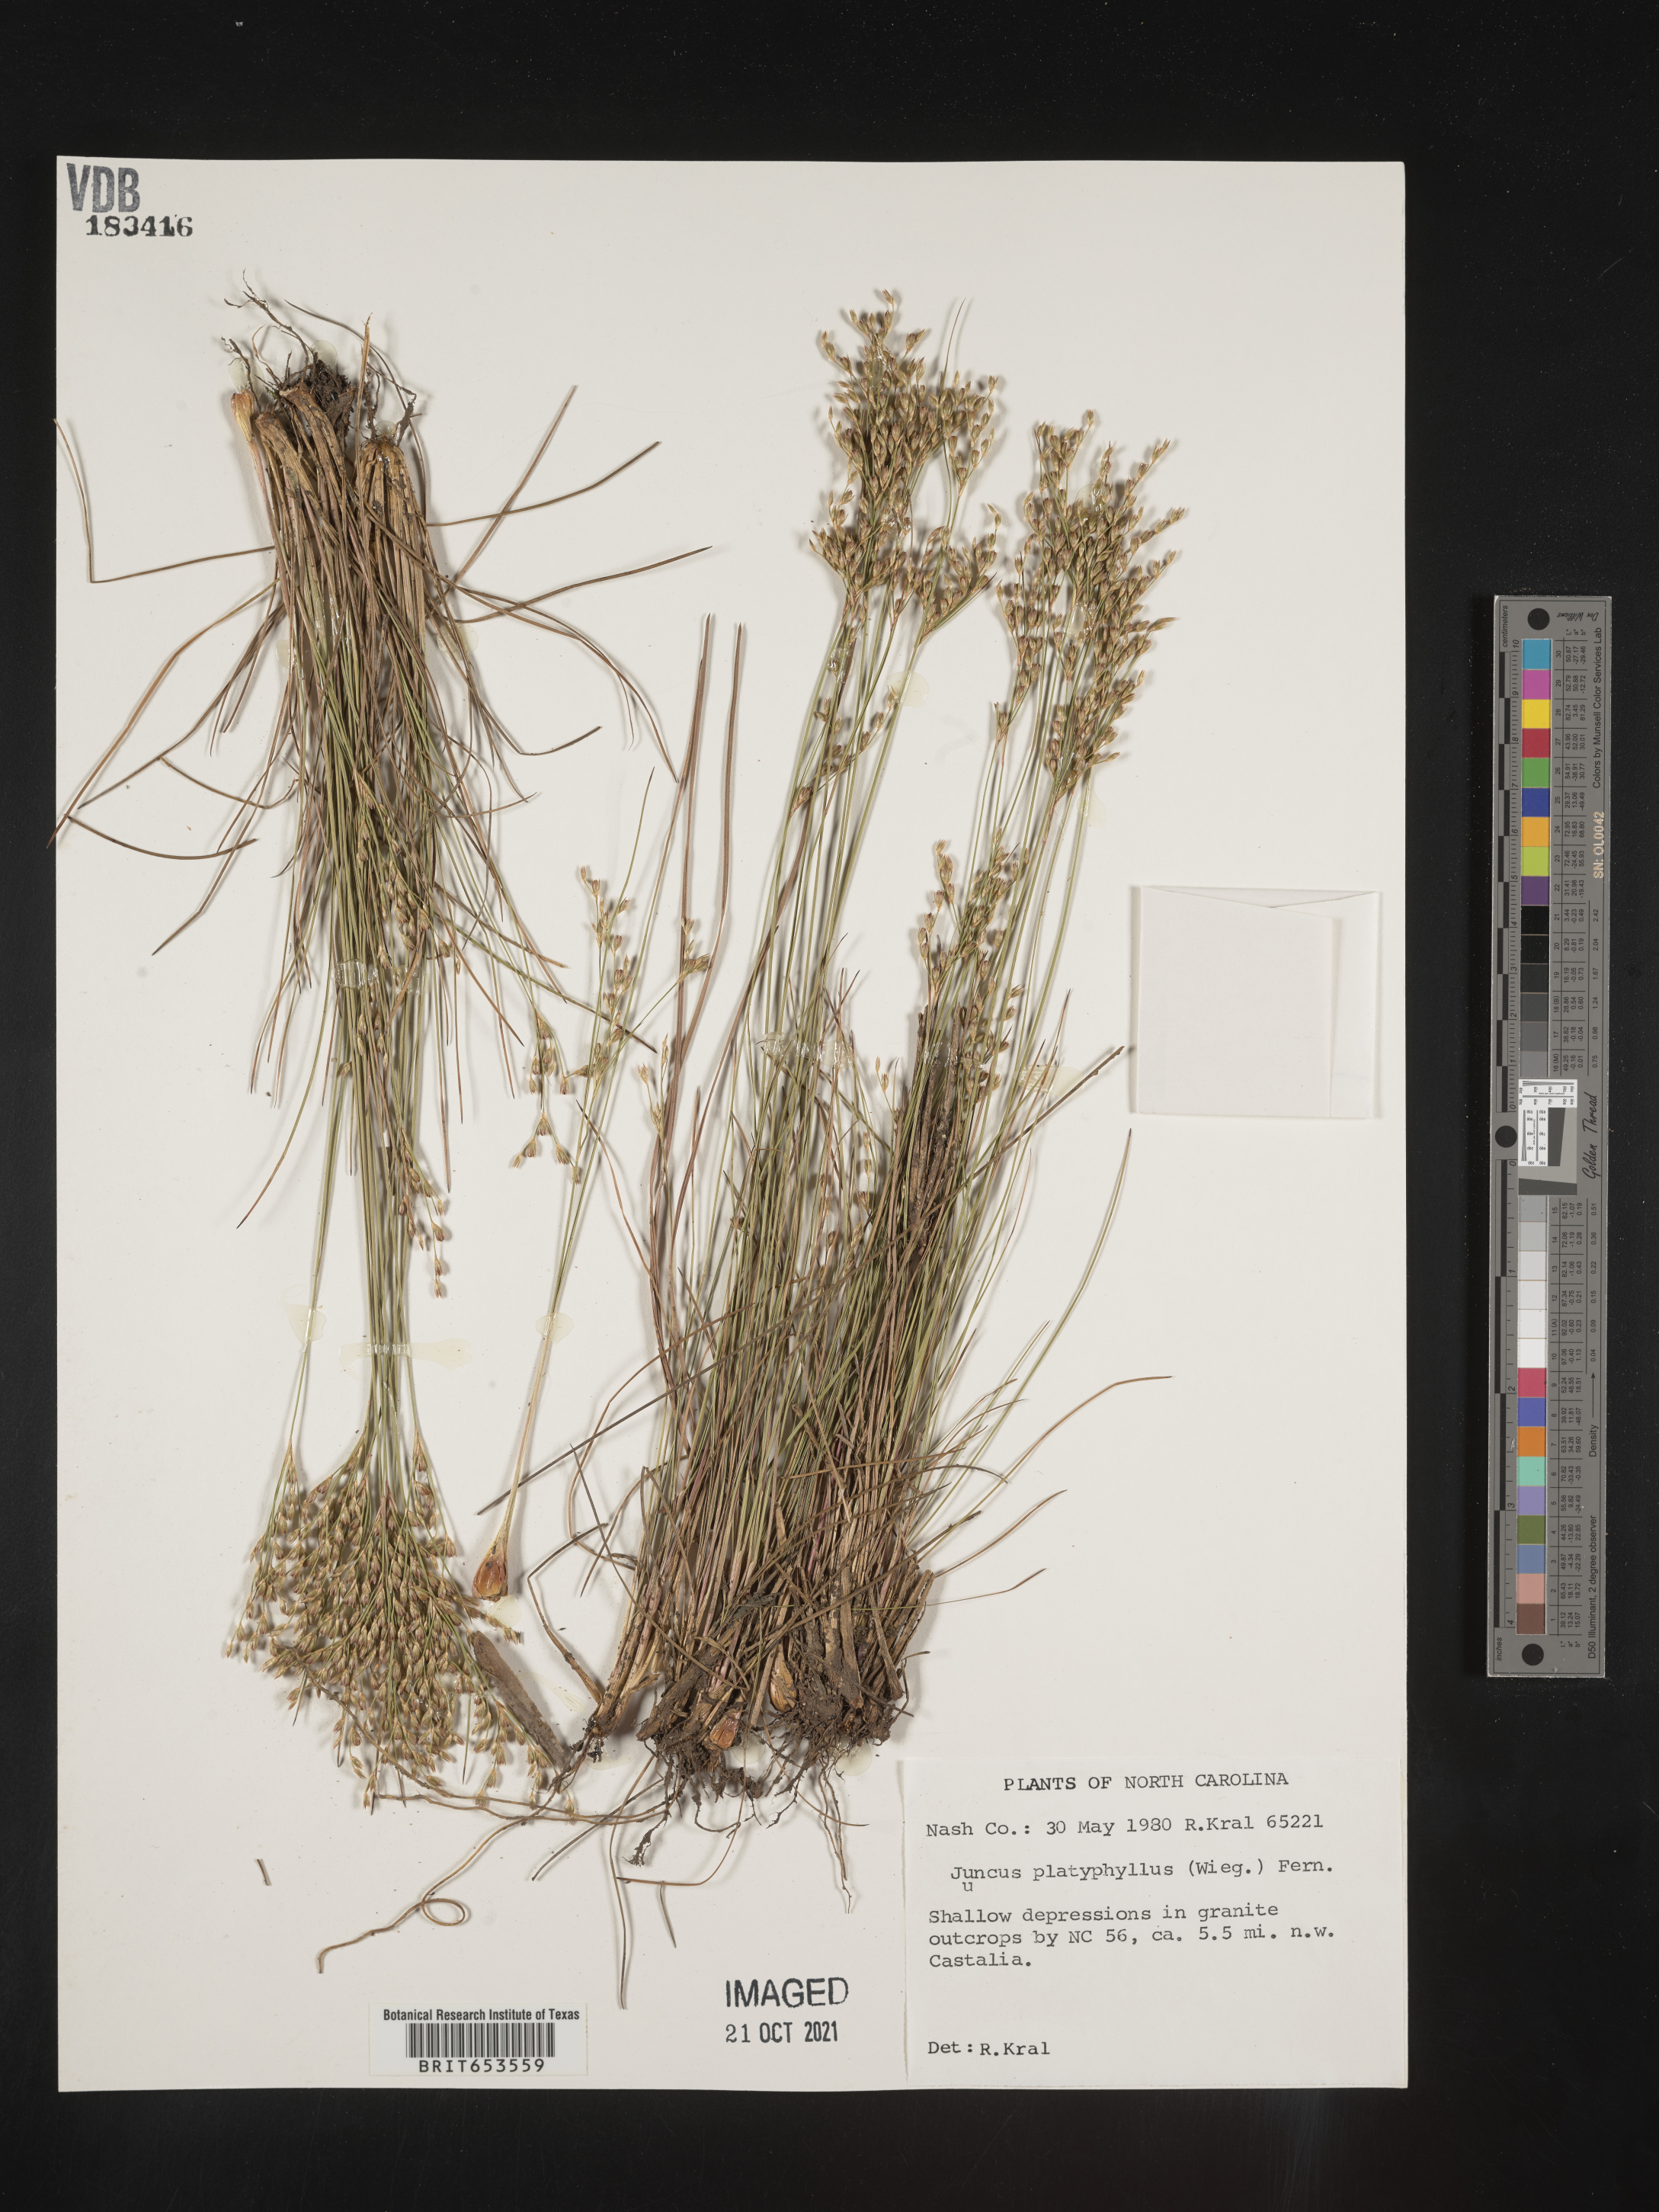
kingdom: Plantae
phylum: Tracheophyta
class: Liliopsida
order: Poales
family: Juncaceae
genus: Juncus
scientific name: Juncus dichotomus
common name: Forked rush
